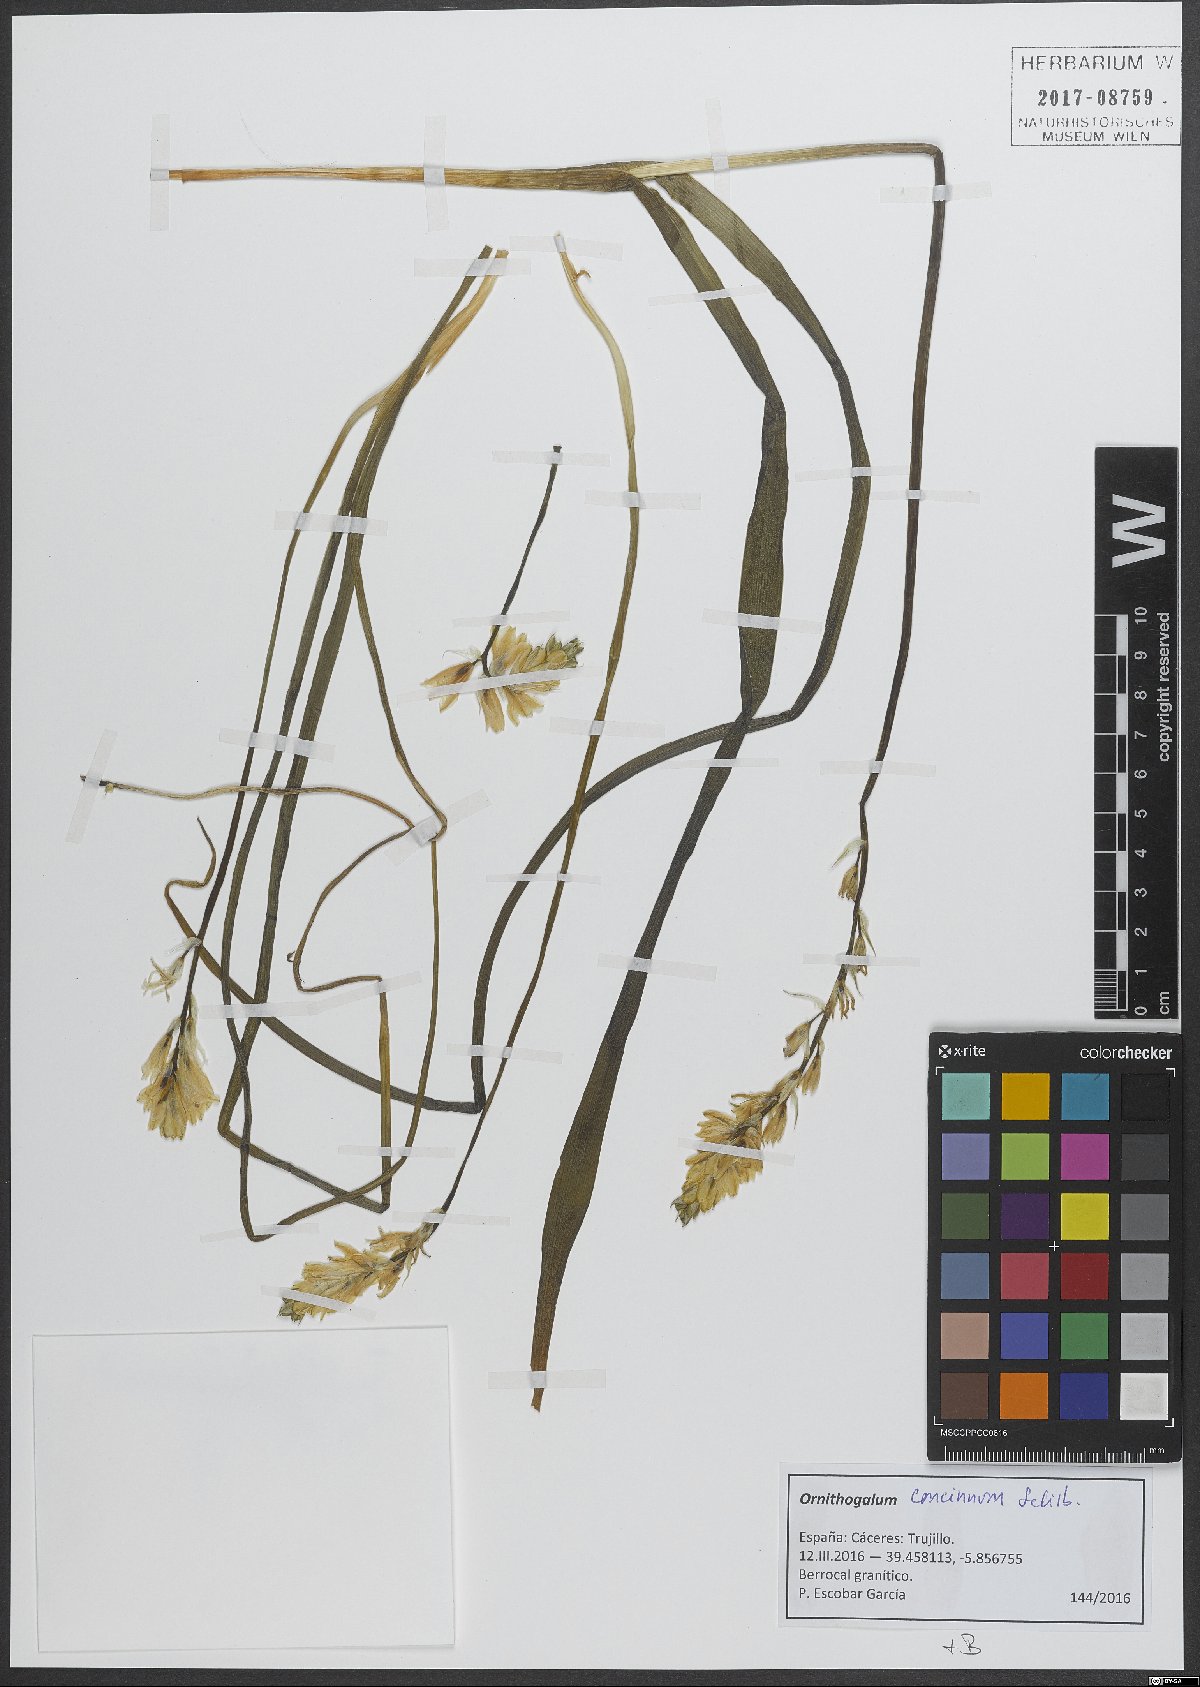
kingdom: Plantae
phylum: Tracheophyta
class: Liliopsida
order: Asparagales
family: Asparagaceae
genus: Ornithogalum
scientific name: Ornithogalum concinnum
